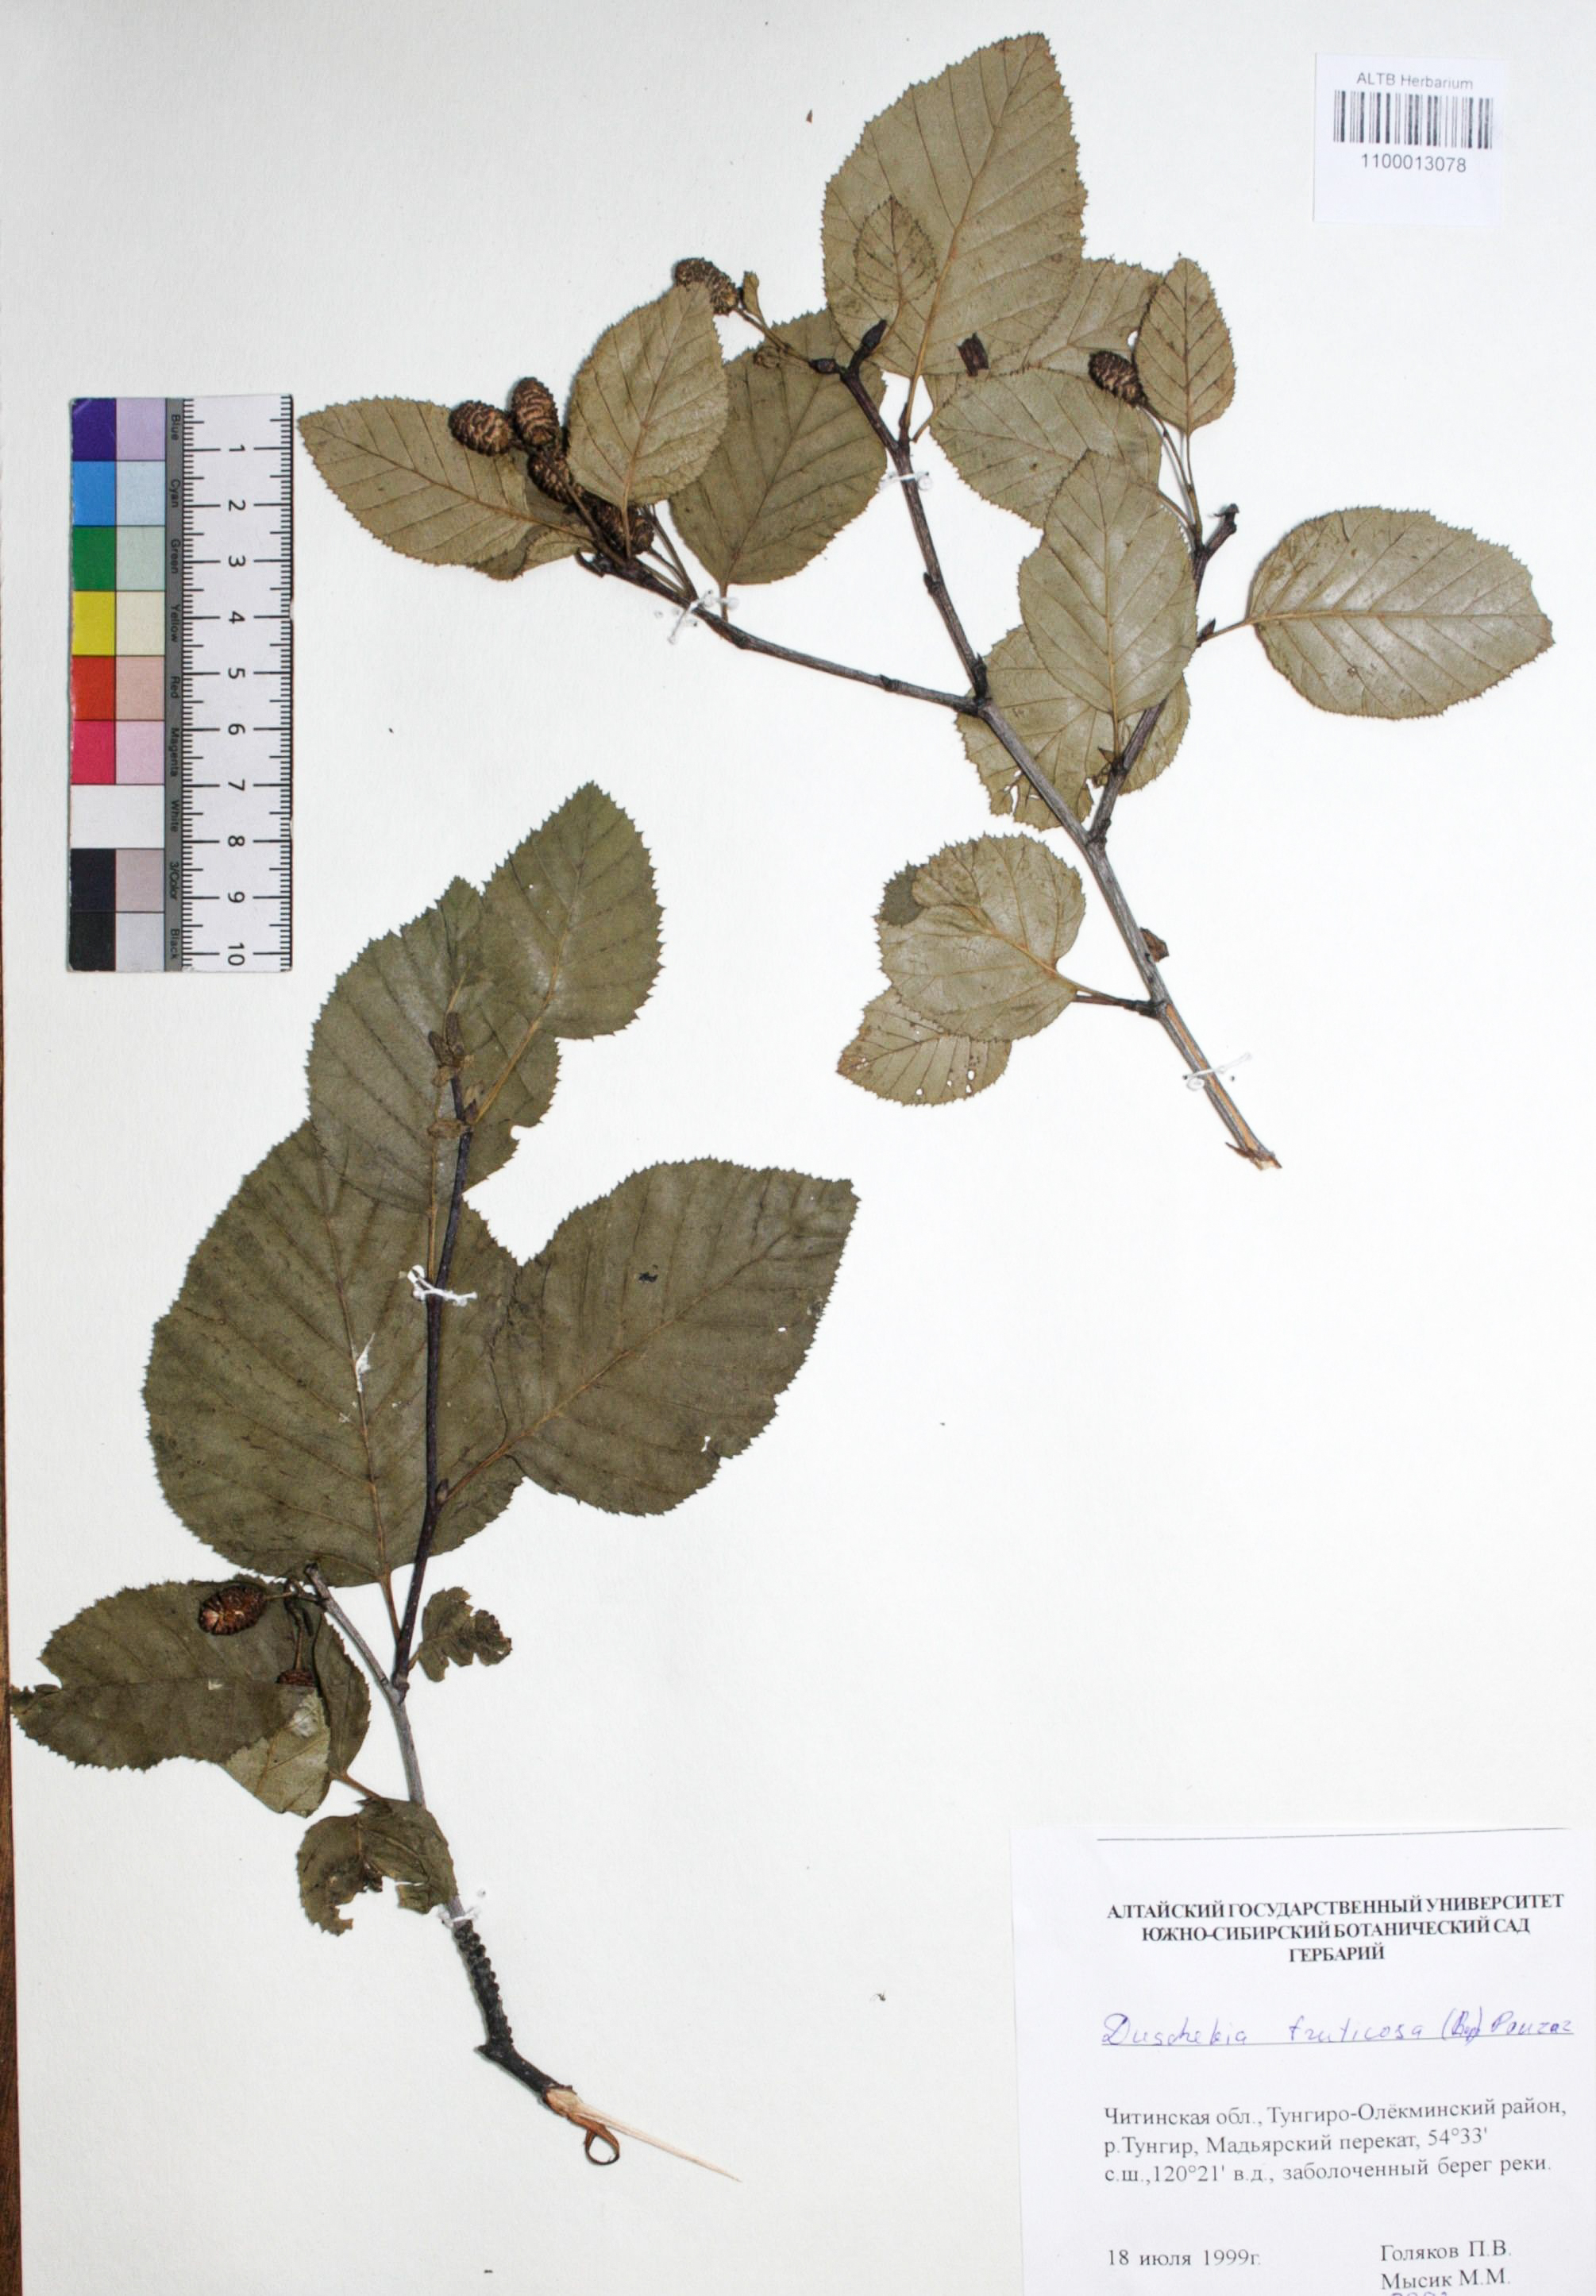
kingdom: Plantae
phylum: Tracheophyta
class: Magnoliopsida
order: Fagales
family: Betulaceae
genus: Alnus
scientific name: Alnus alnobetula
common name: Green alder
